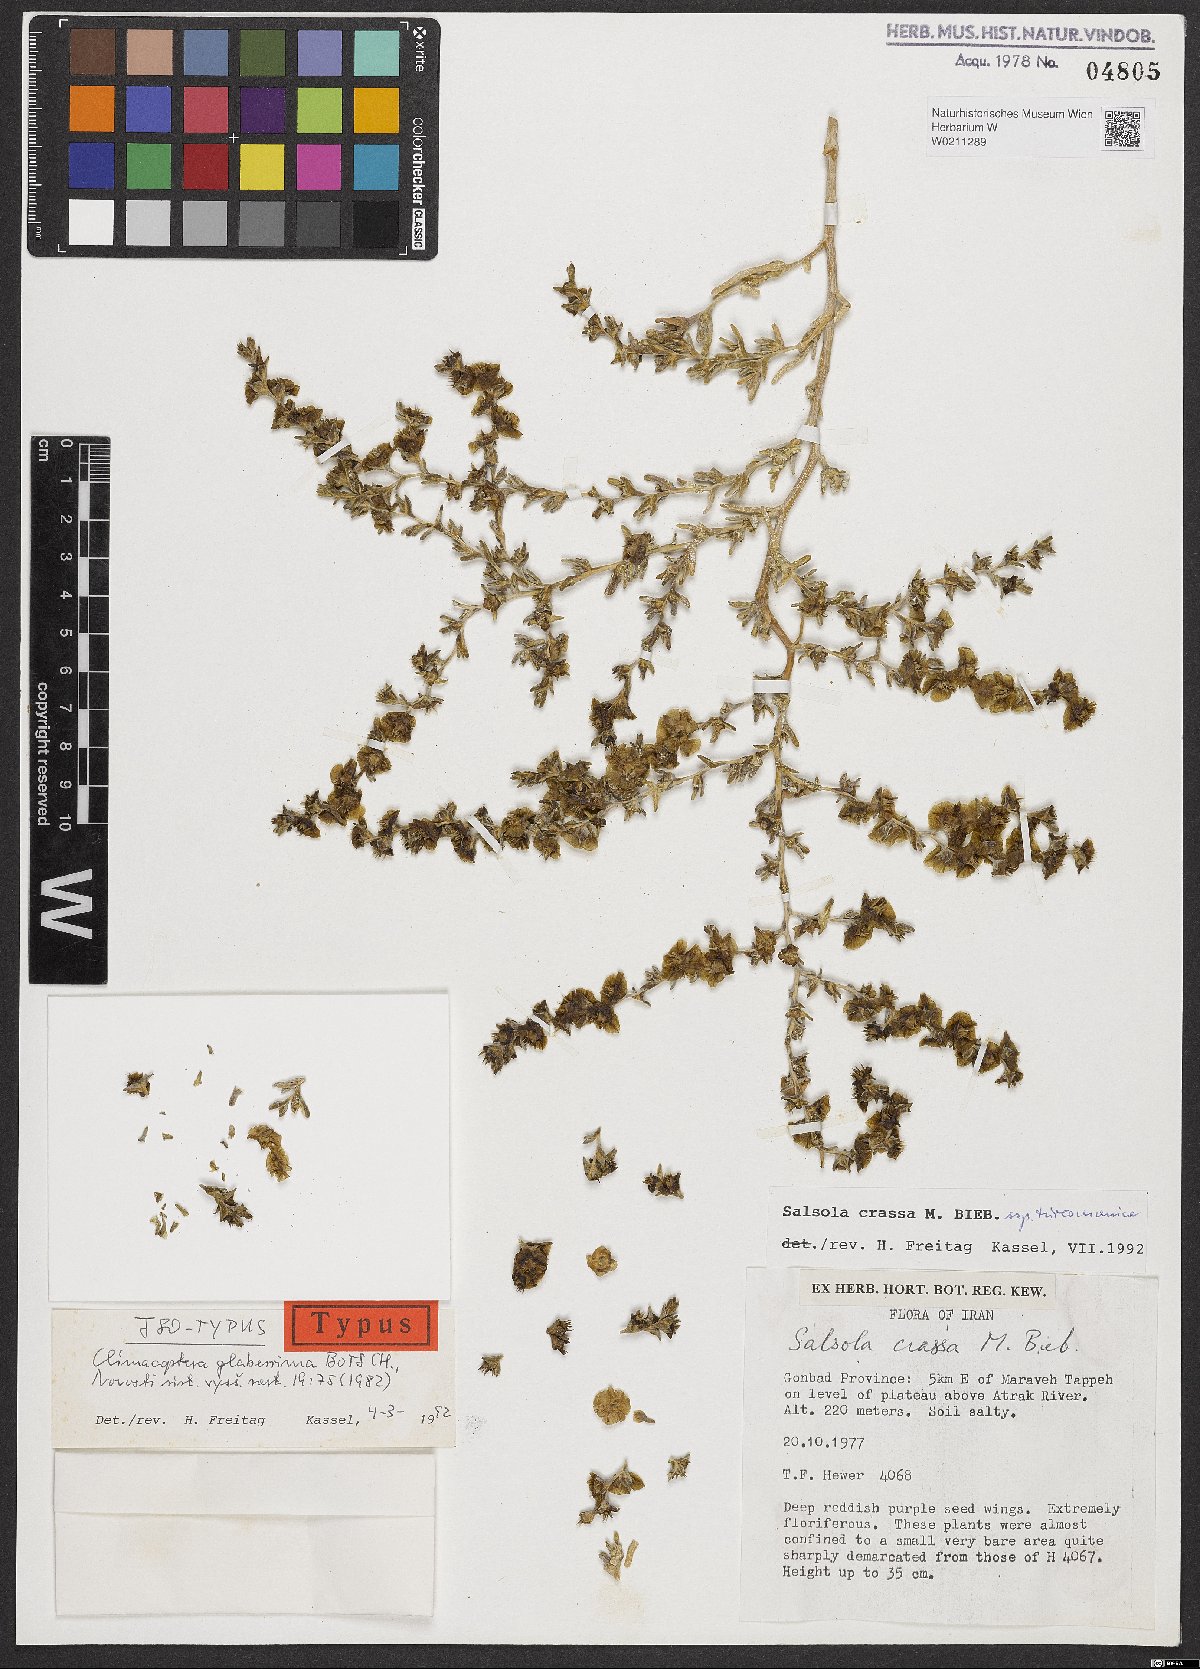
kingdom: Plantae
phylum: Tracheophyta
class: Magnoliopsida
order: Caryophyllales
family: Amaranthaceae
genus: Climacoptera
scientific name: Climacoptera turcomanica
